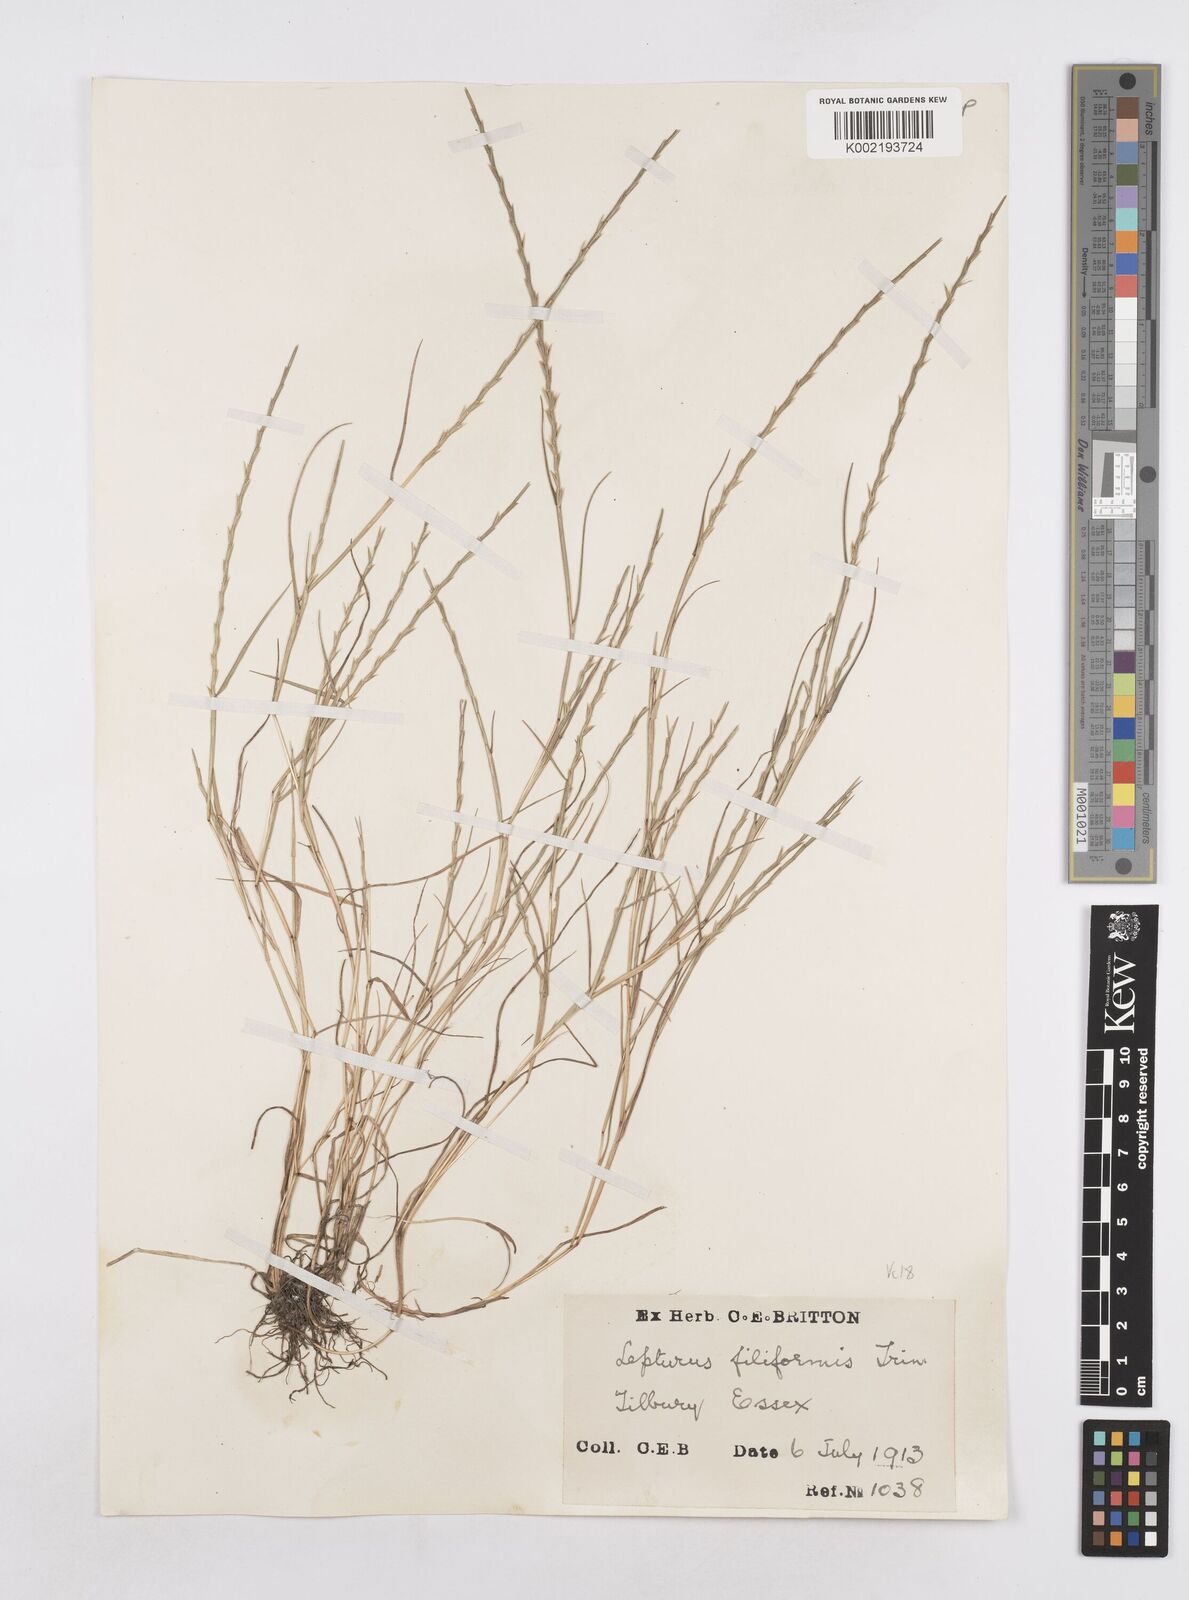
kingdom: Plantae
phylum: Tracheophyta
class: Liliopsida
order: Poales
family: Poaceae
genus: Parapholis
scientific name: Parapholis strigosa
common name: Hard-grass
